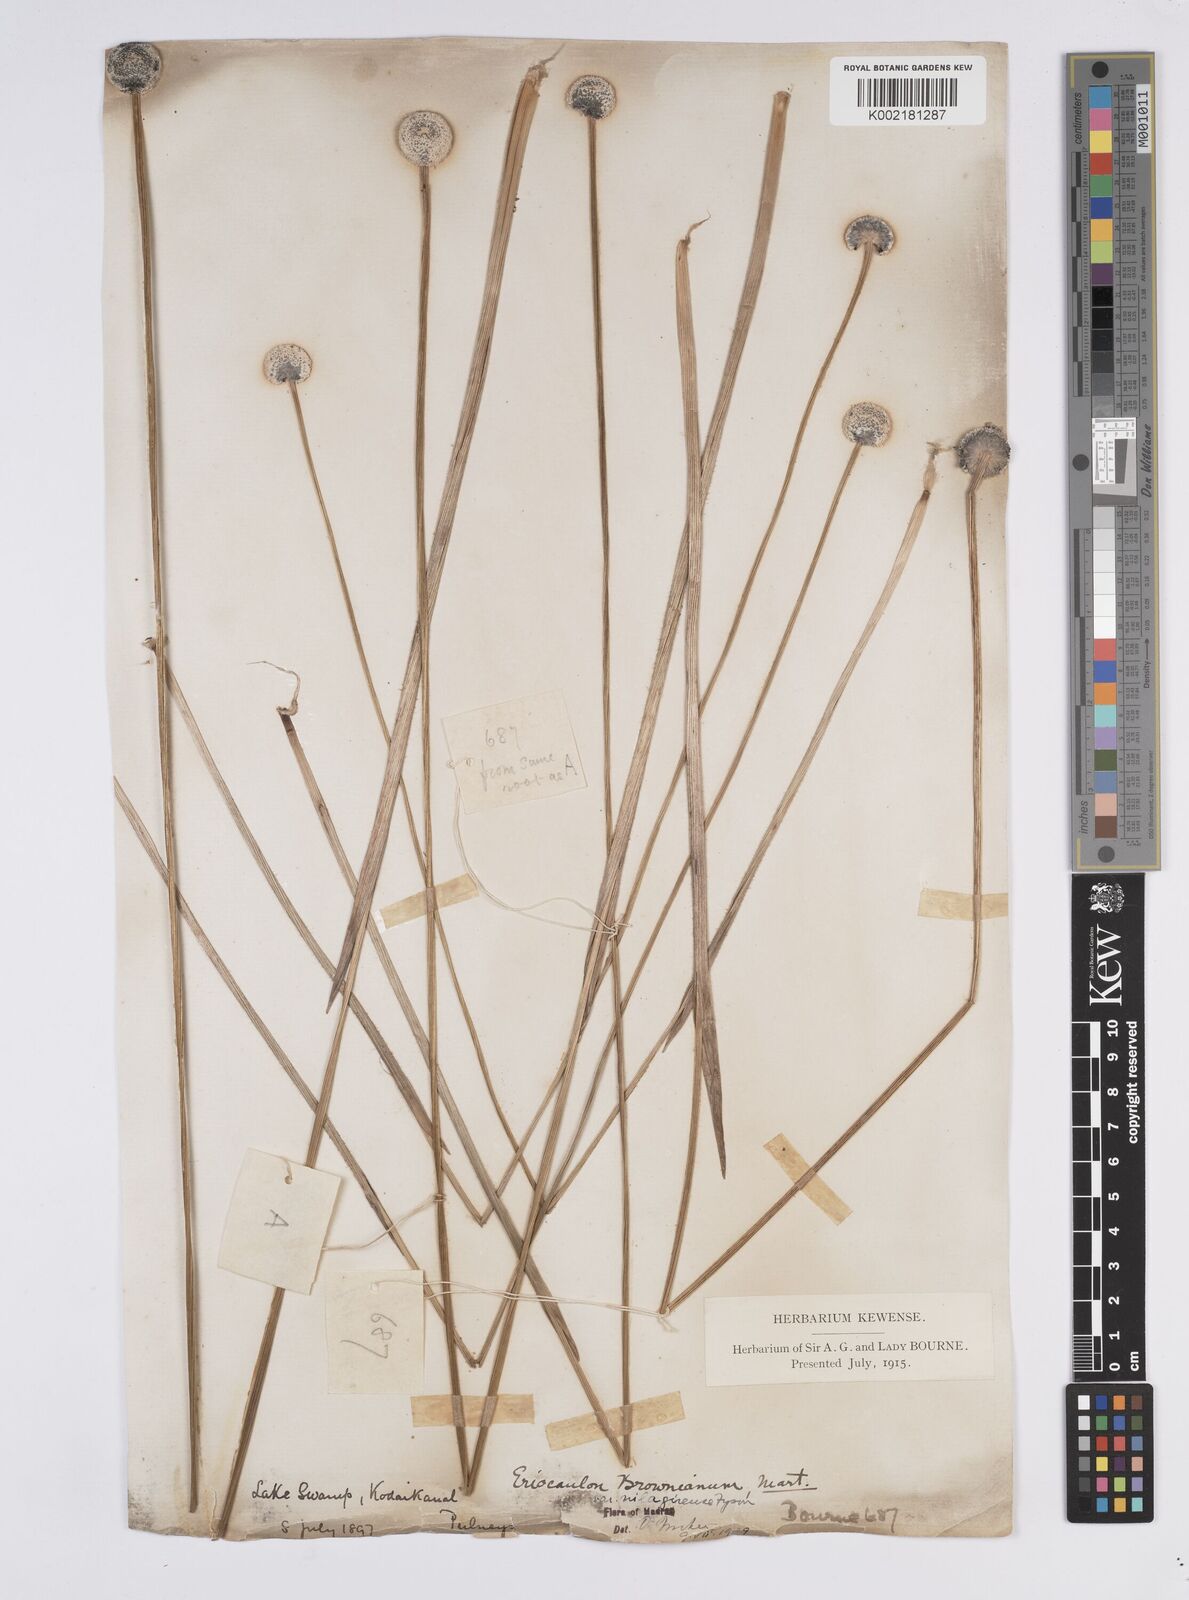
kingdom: Plantae
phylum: Tracheophyta
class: Liliopsida
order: Poales
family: Eriocaulaceae
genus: Eriocaulon
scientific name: Eriocaulon brownianum
